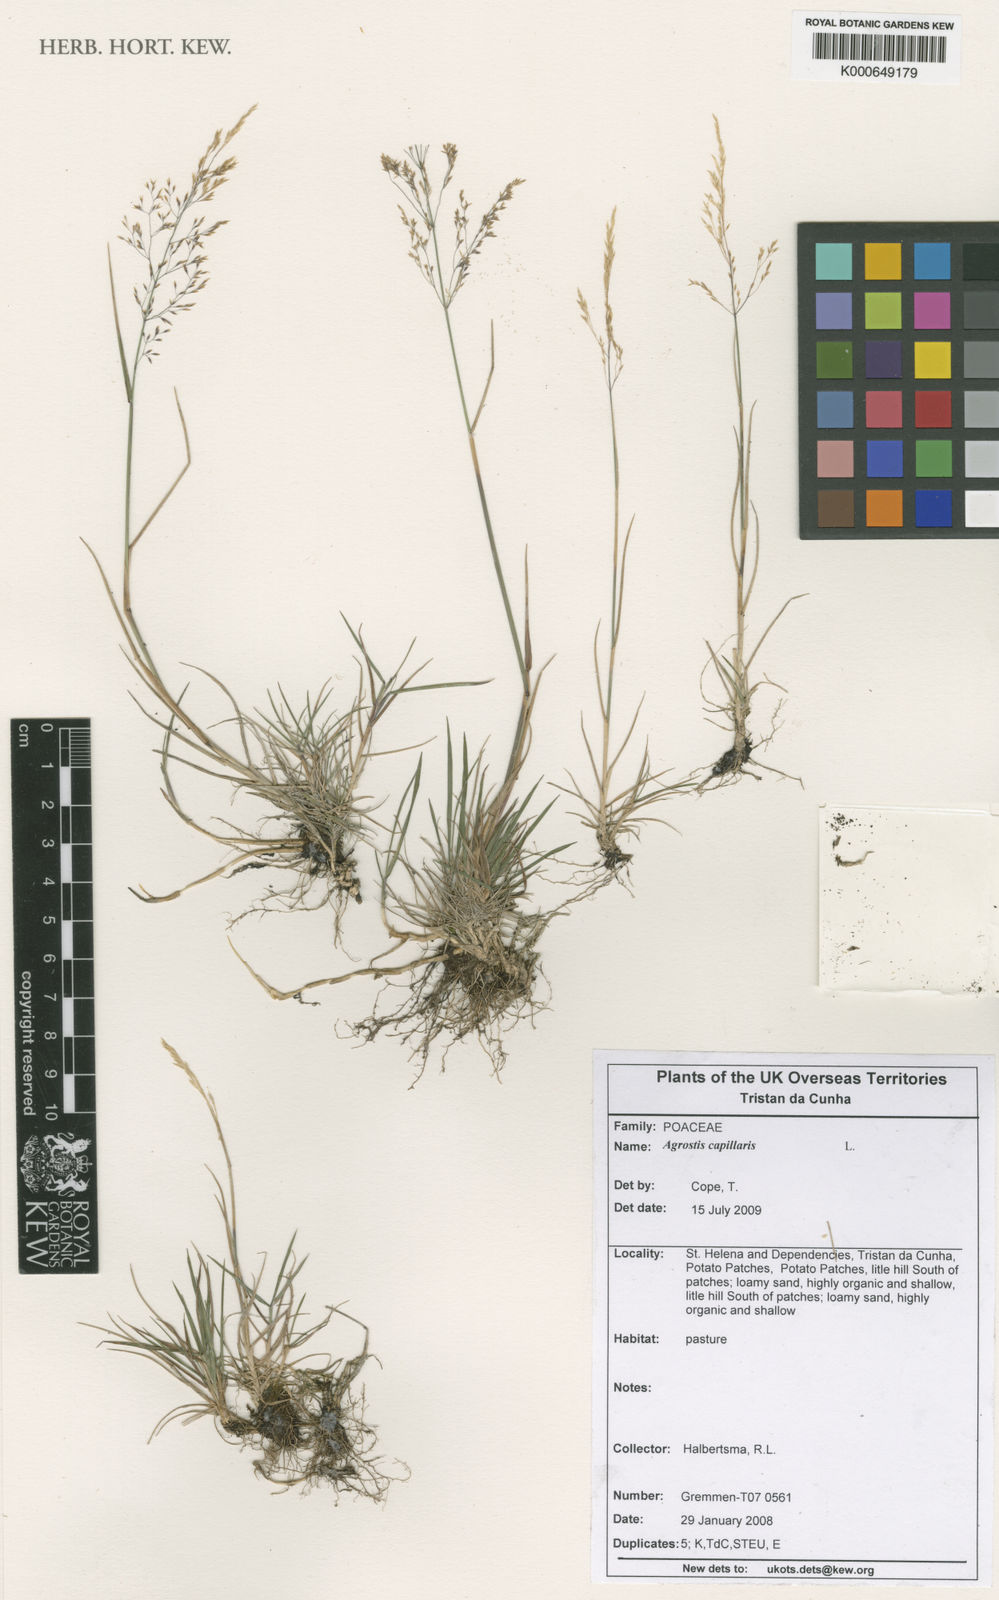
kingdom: Plantae
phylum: Tracheophyta
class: Liliopsida
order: Poales
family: Poaceae
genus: Agrostis
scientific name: Agrostis capillaris
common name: Colonial bentgrass
